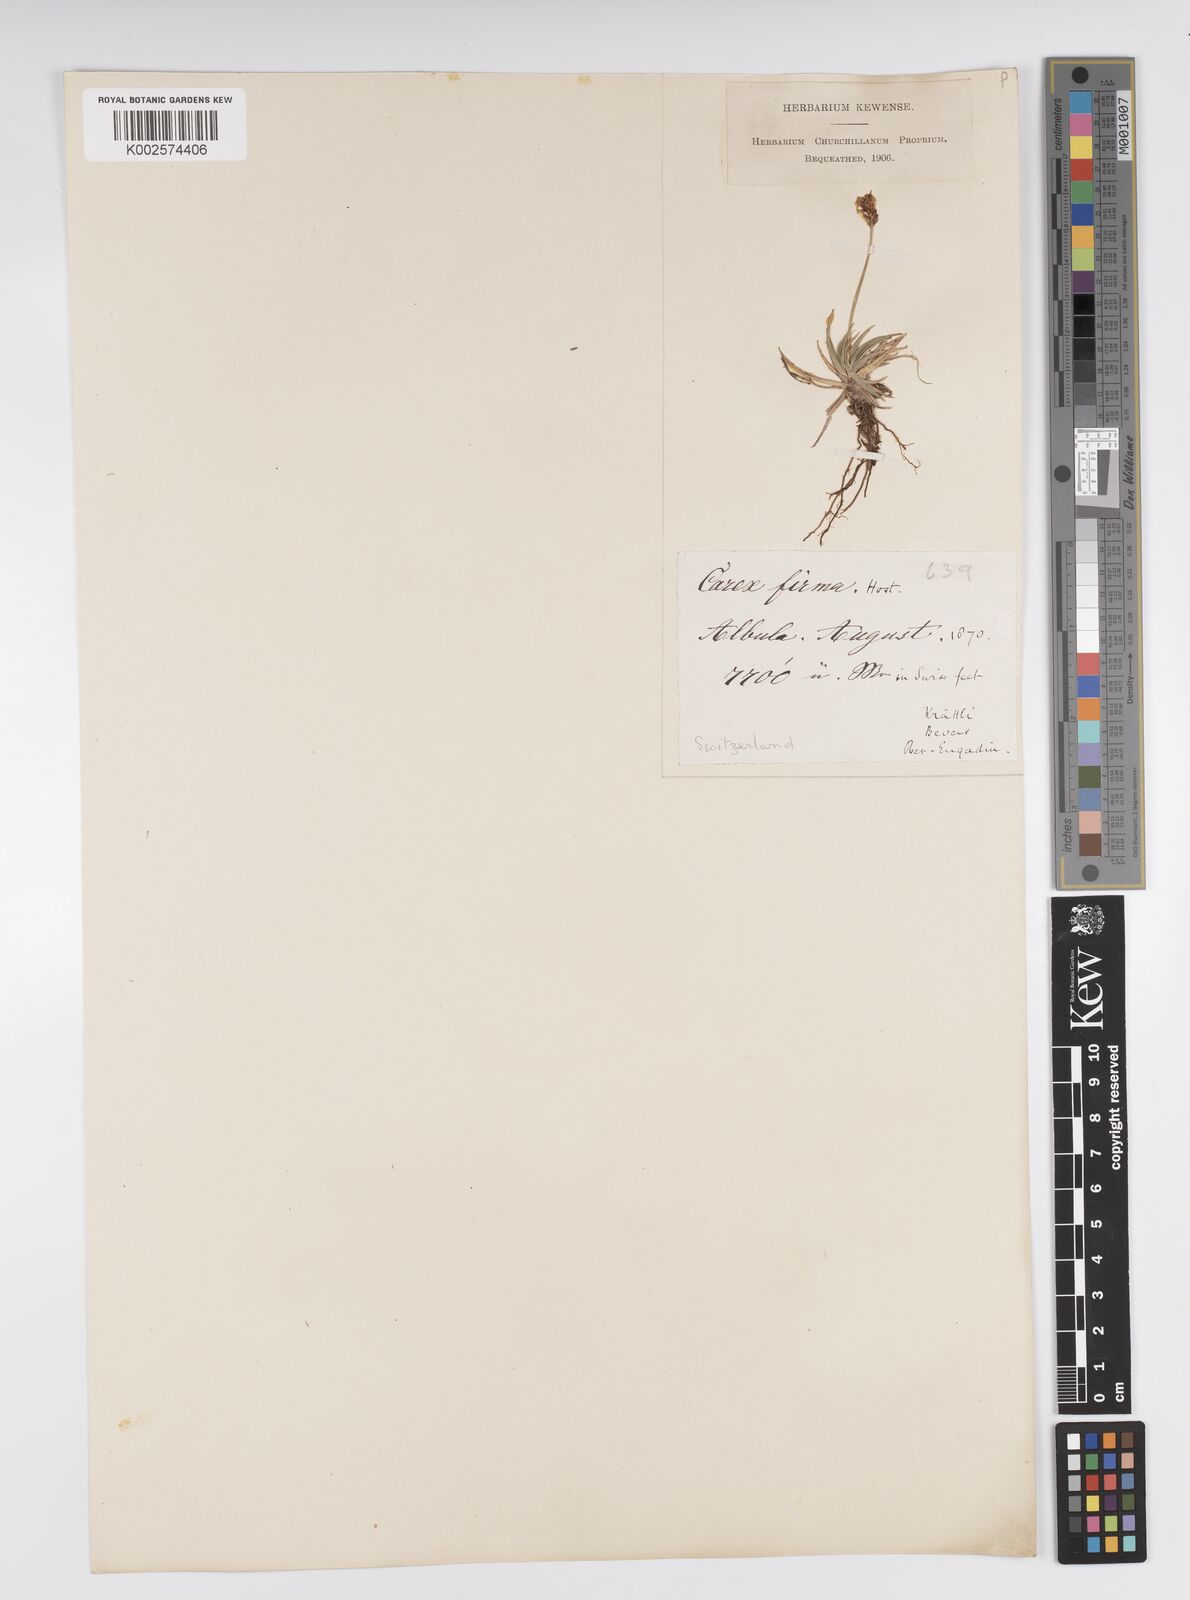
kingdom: Plantae
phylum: Tracheophyta
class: Liliopsida
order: Poales
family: Cyperaceae
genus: Carex
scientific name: Carex firma
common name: Dwarf pillow sedge
